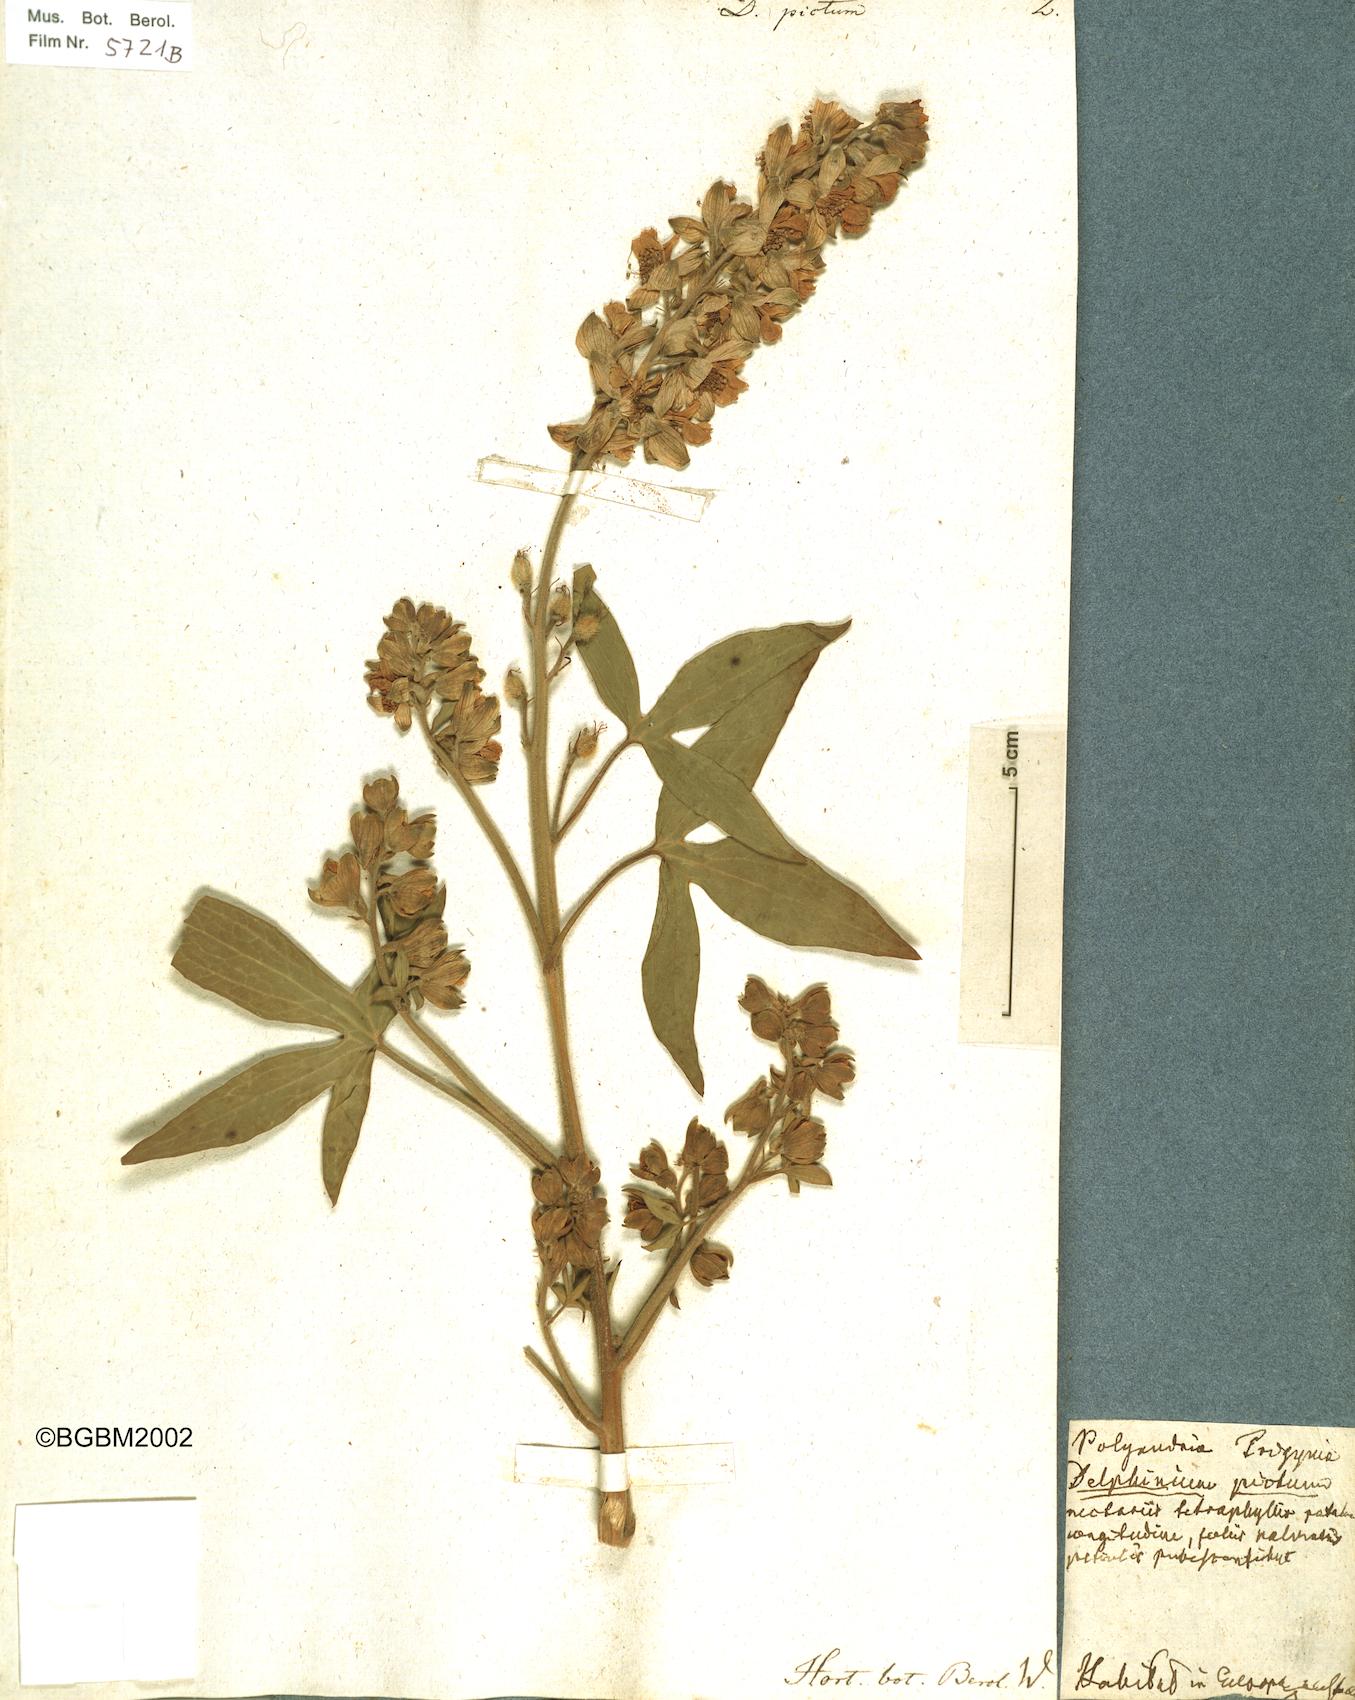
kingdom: Plantae
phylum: Tracheophyta
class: Magnoliopsida
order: Ranunculales
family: Ranunculaceae
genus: Staphisagria
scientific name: Staphisagria picta
